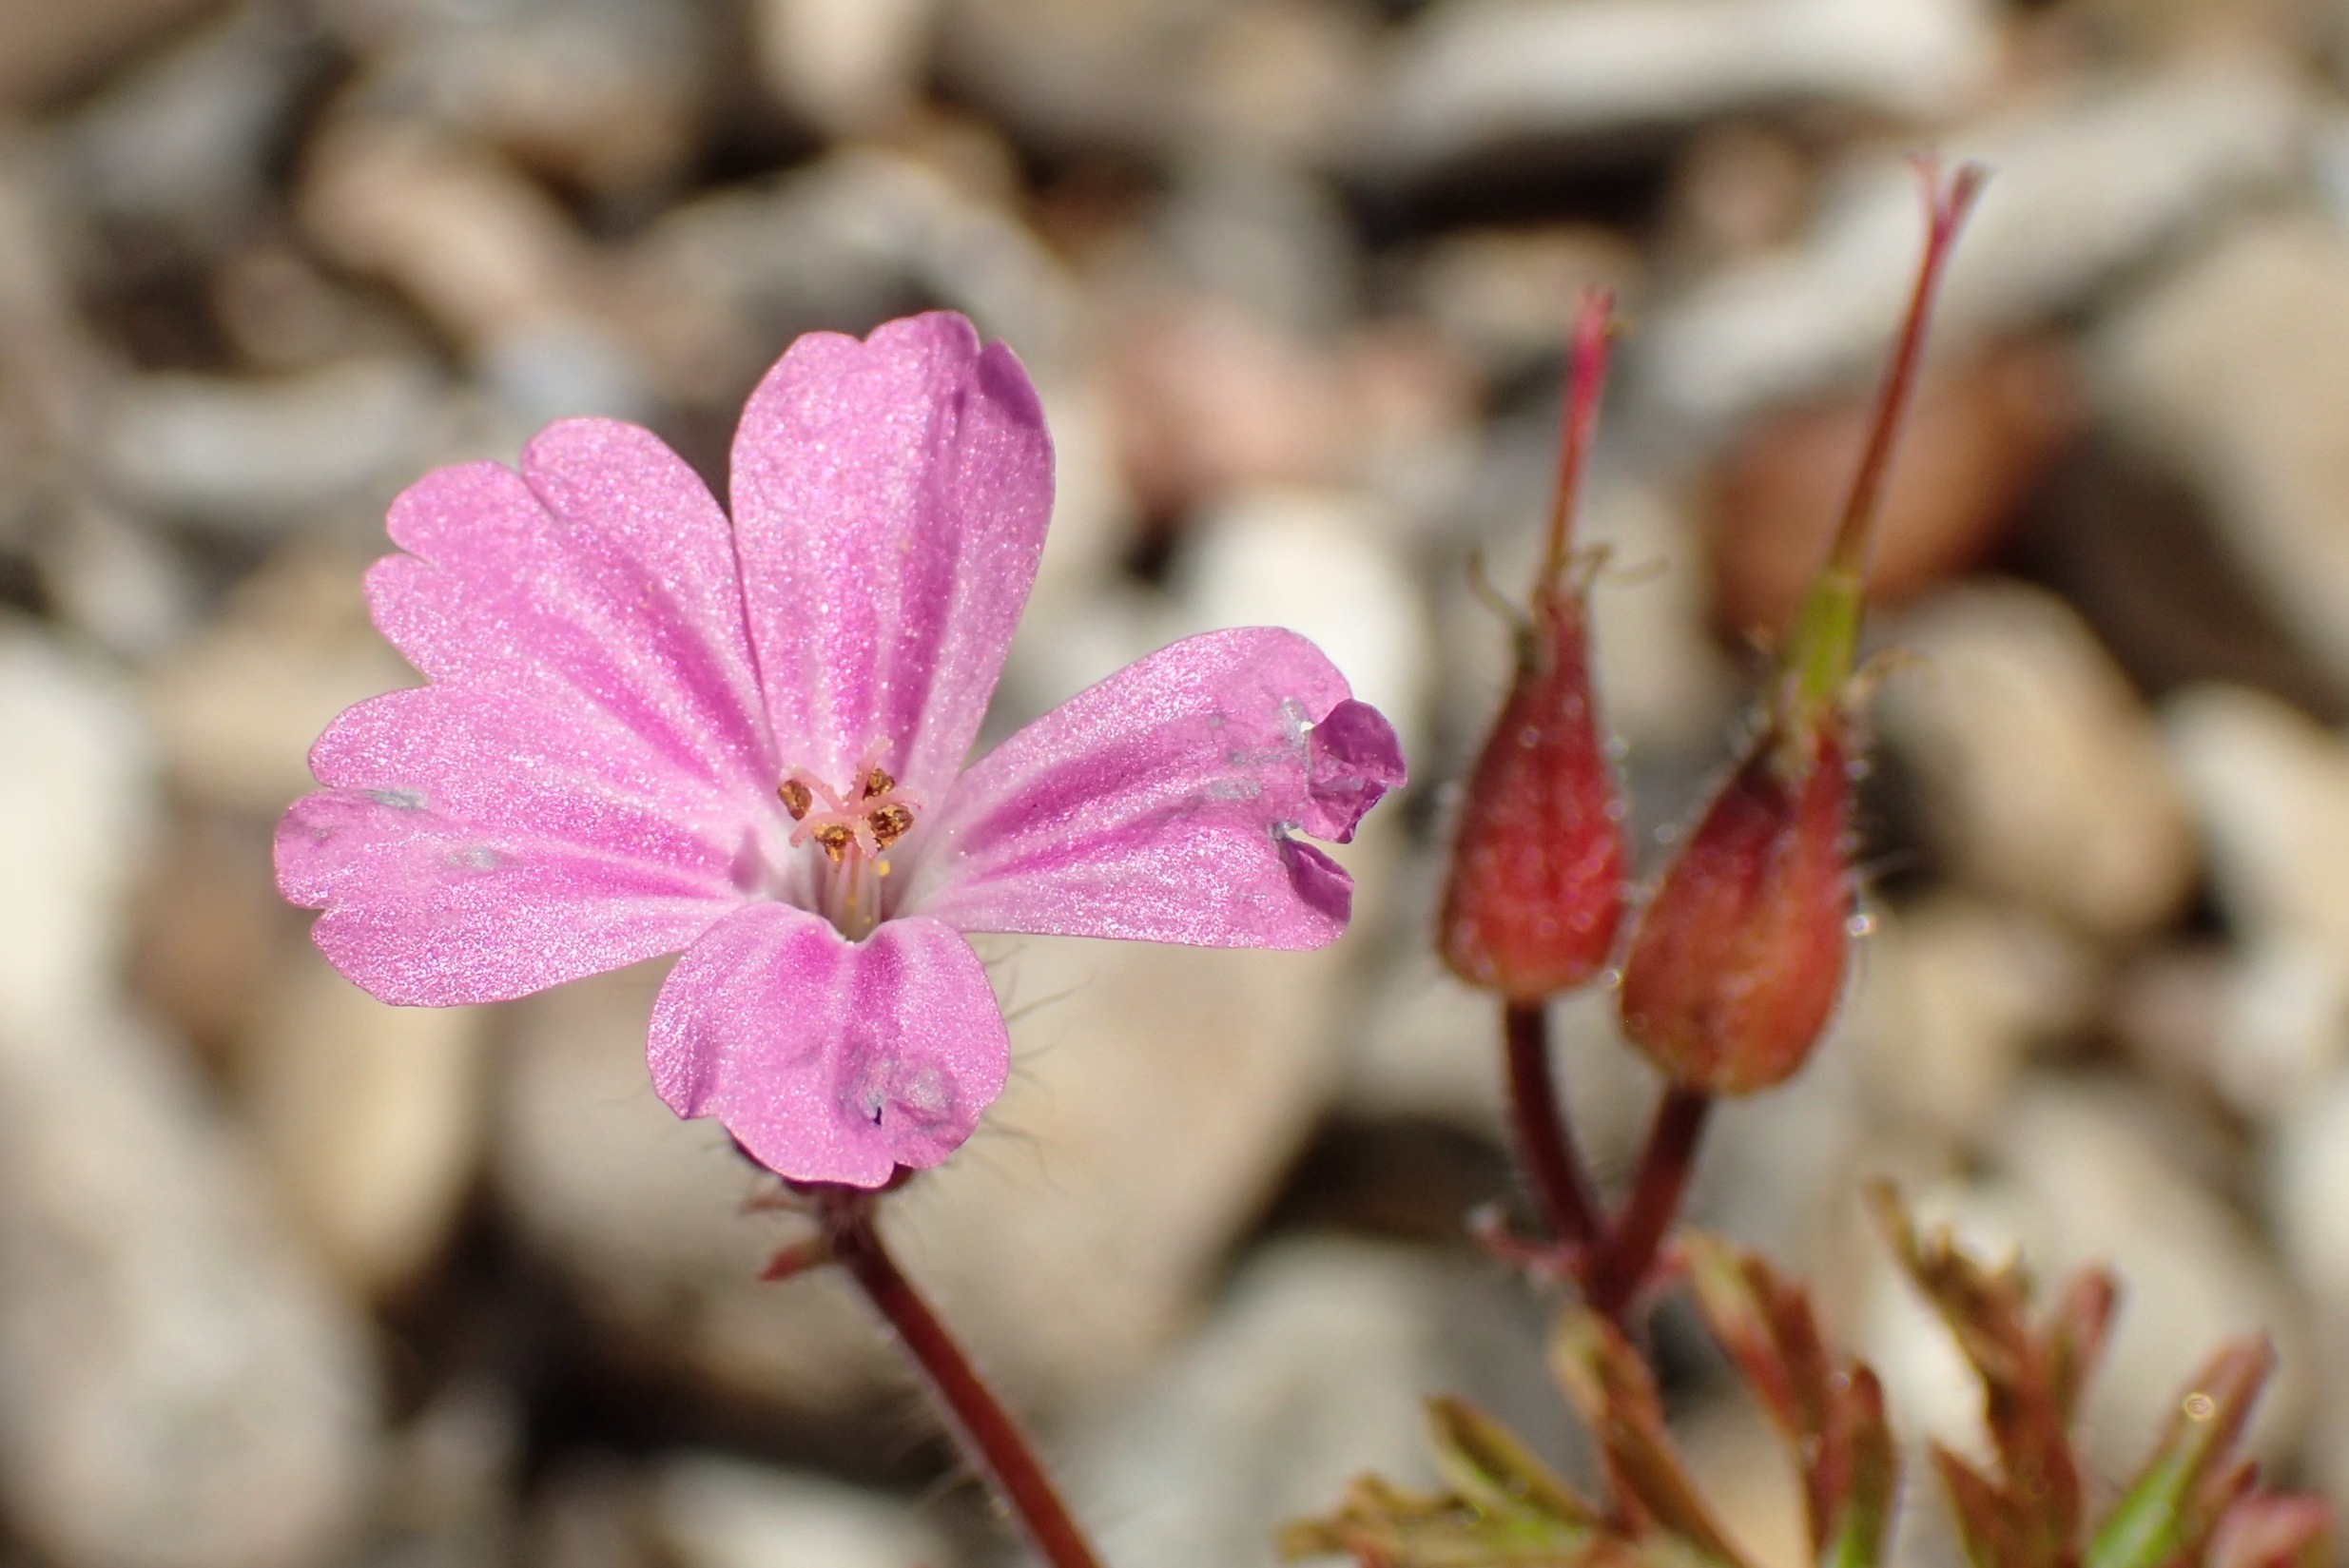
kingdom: Plantae
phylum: Tracheophyta
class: Magnoliopsida
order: Geraniales
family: Geraniaceae
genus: Geranium
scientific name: Geranium robertianum
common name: Stinkende storkenæb
